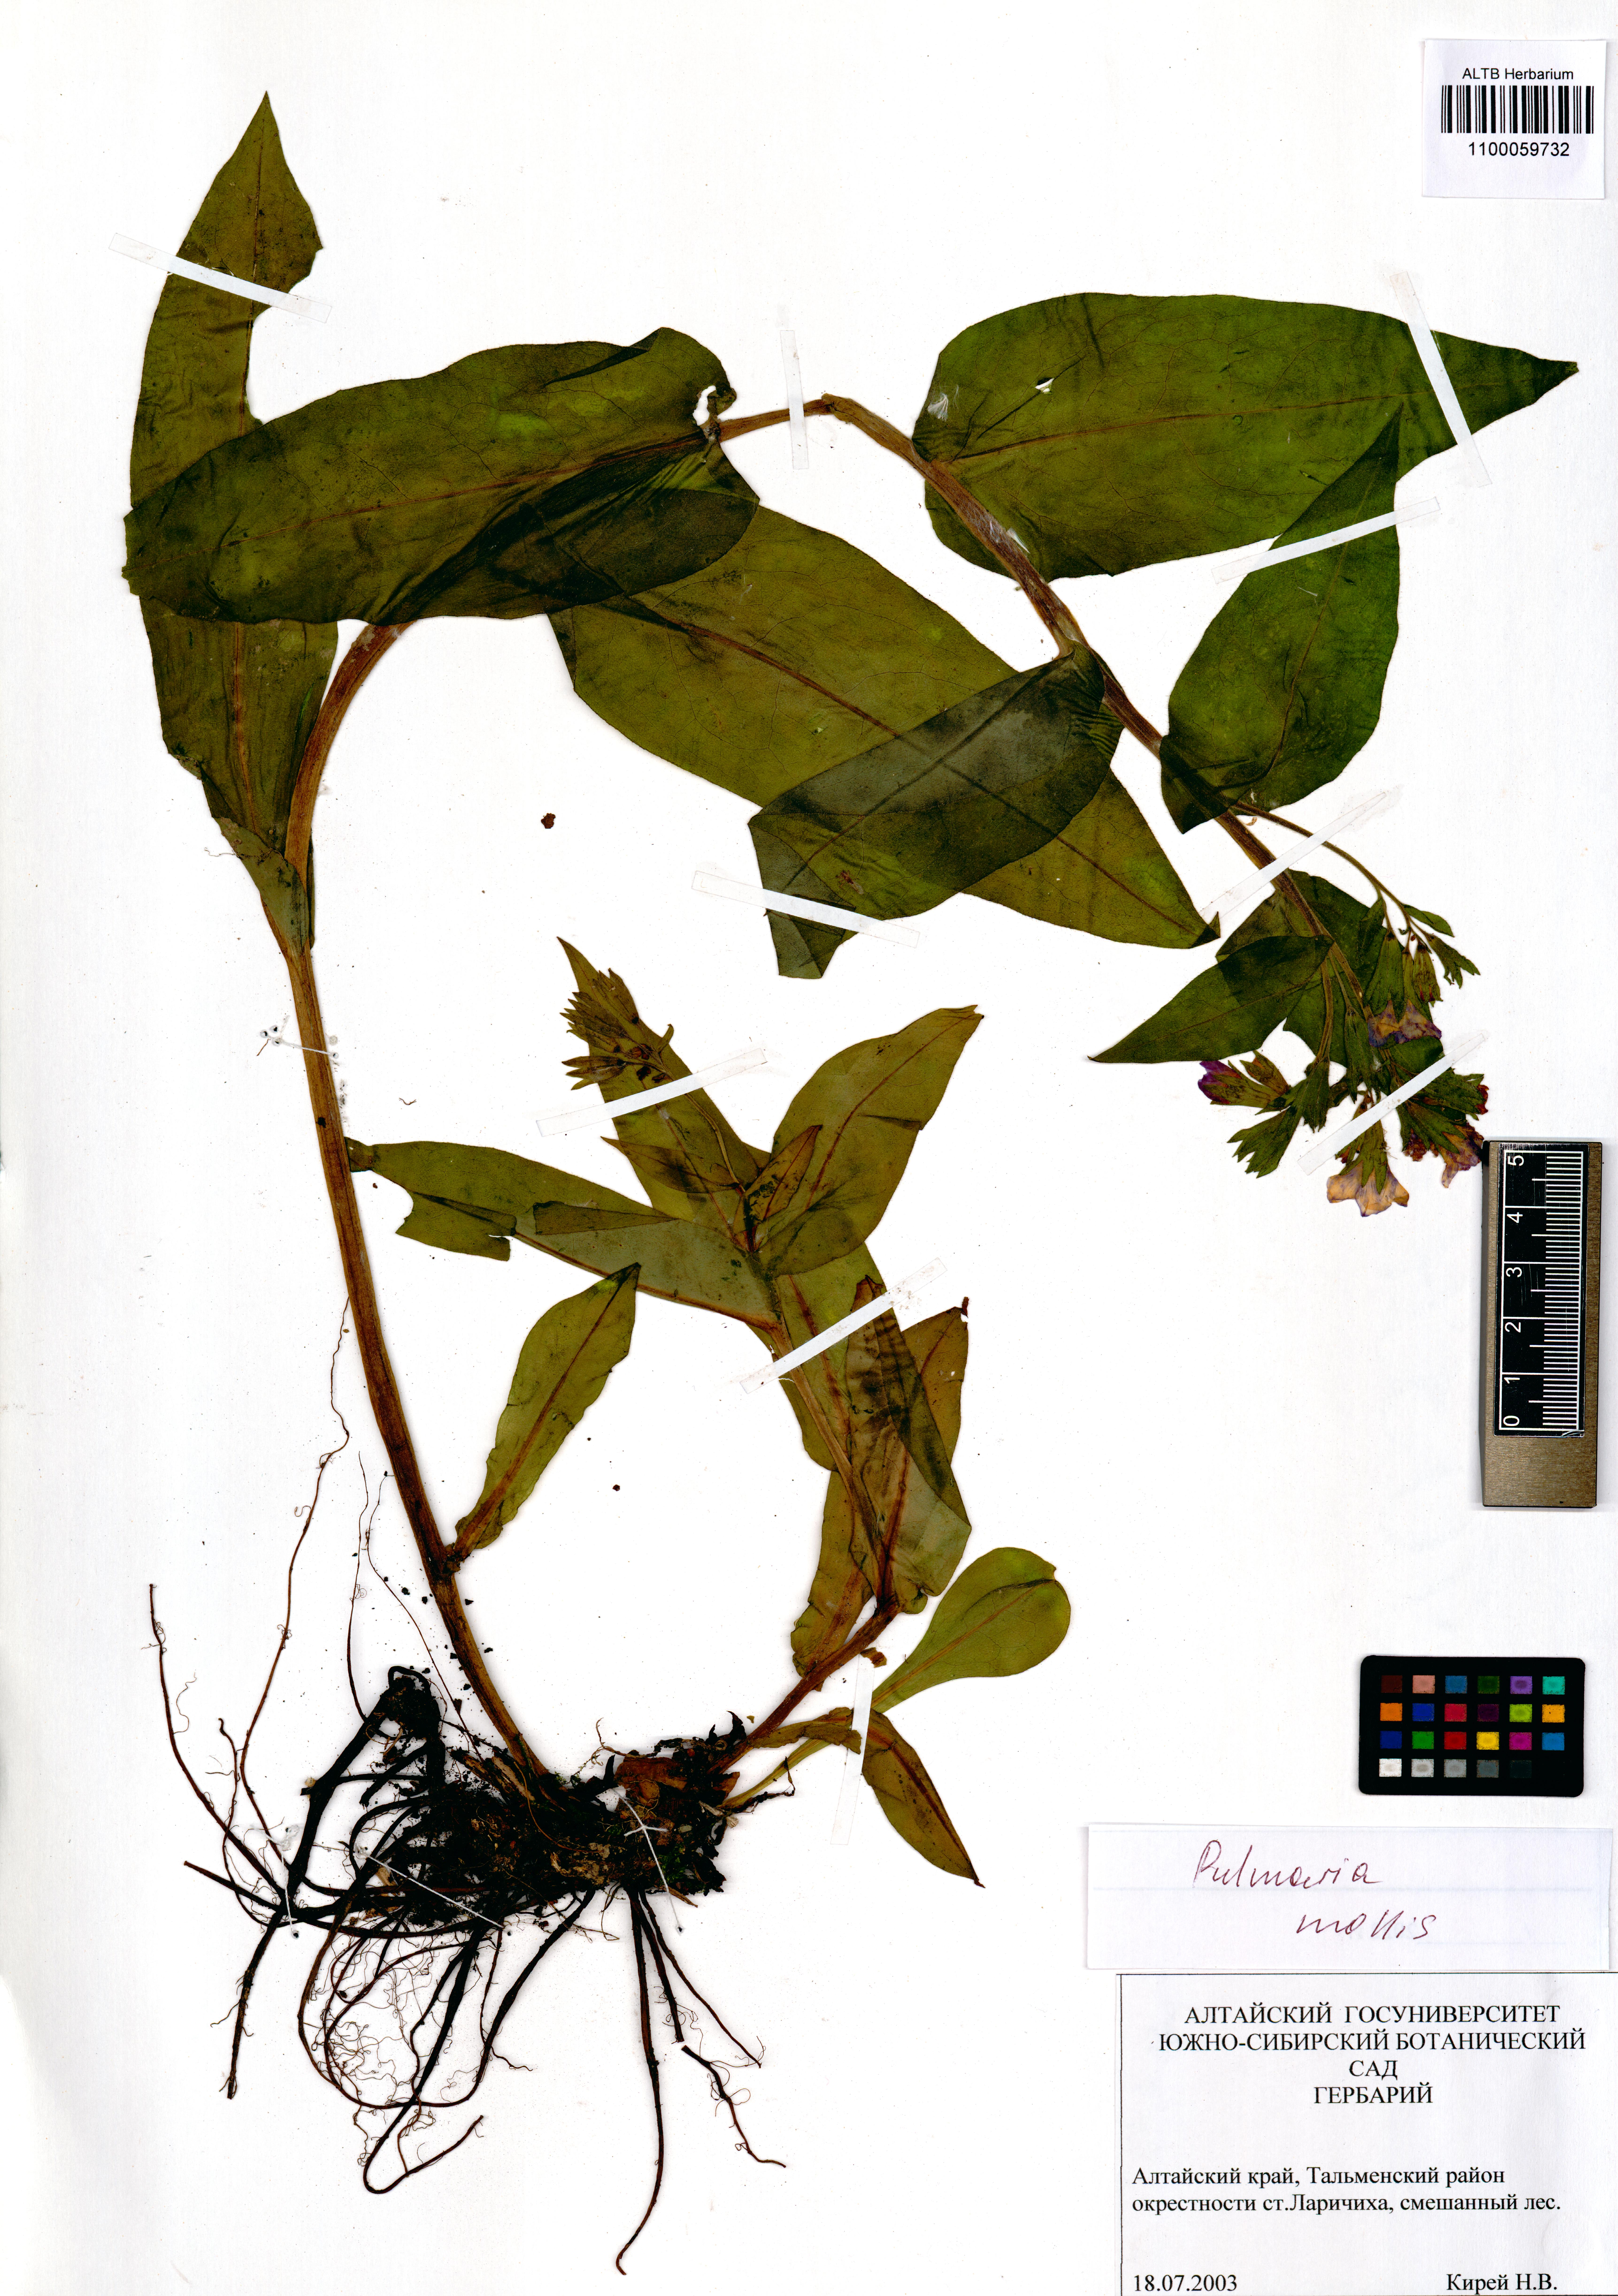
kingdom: Plantae
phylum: Tracheophyta
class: Magnoliopsida
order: Boraginales
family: Boraginaceae
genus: Pulmonaria
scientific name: Pulmonaria mollis
